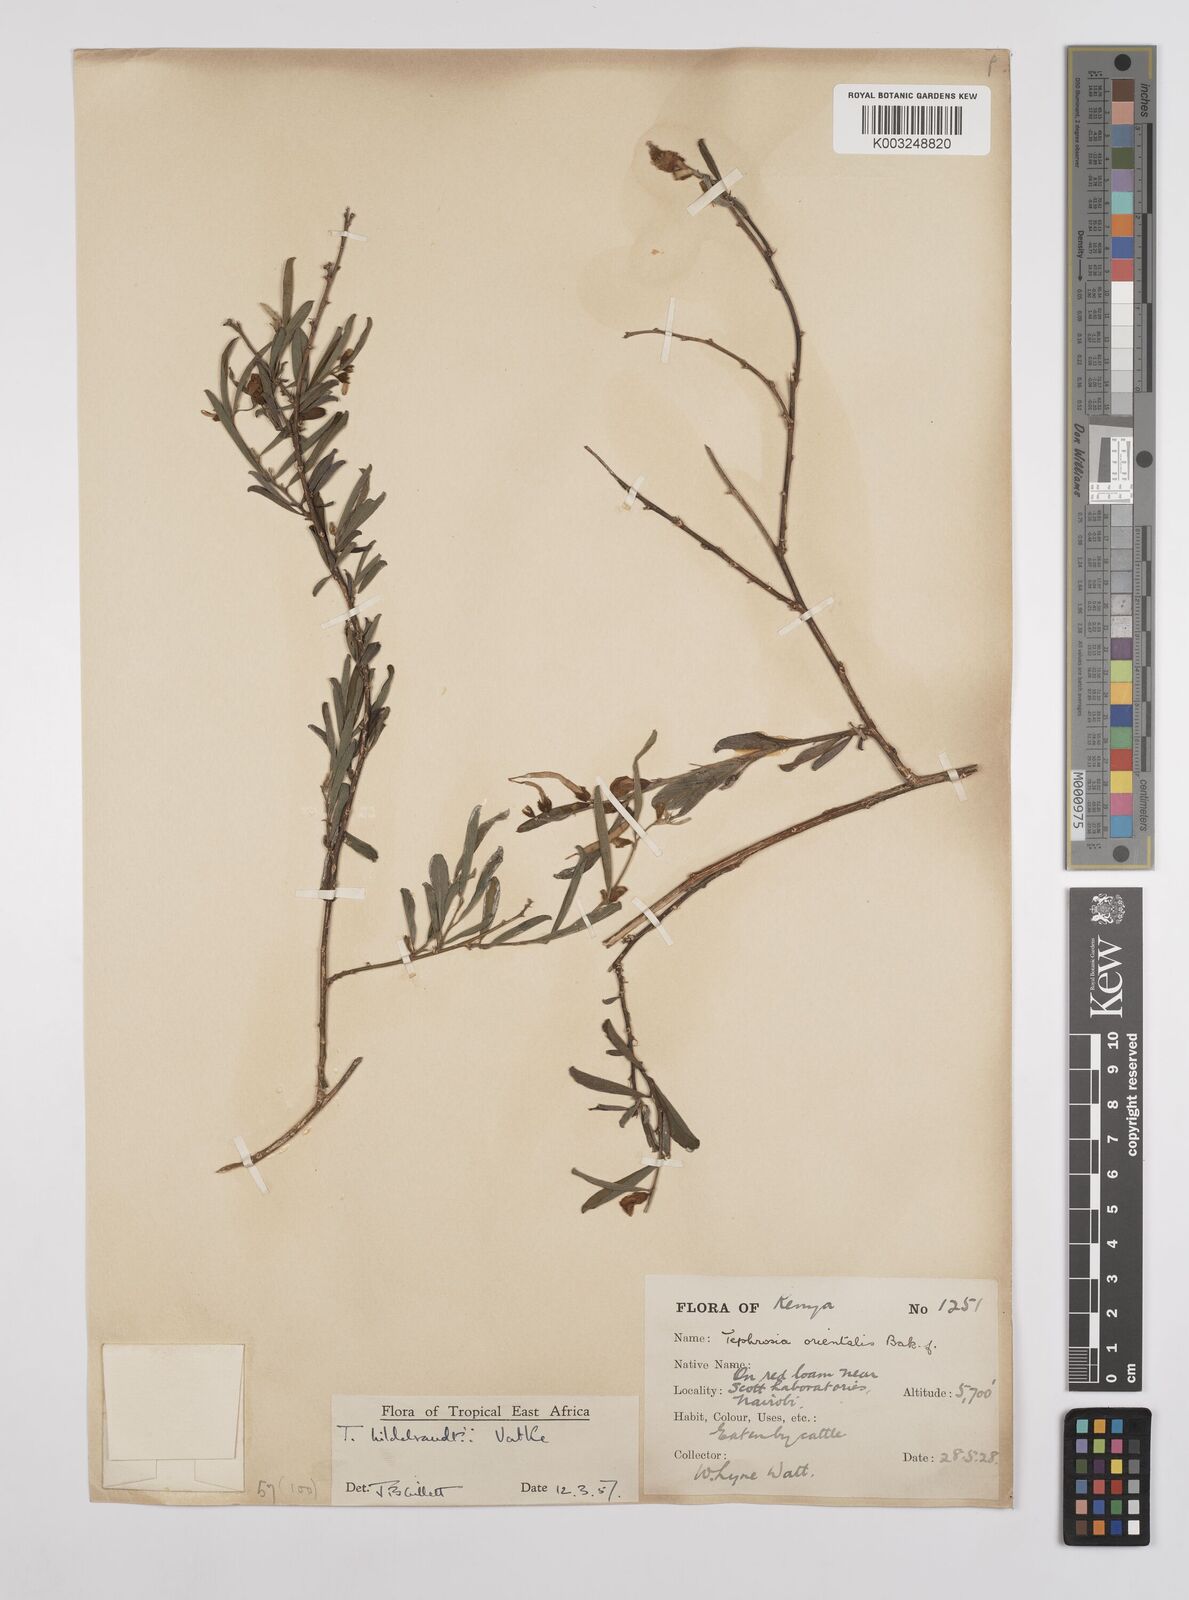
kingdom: Plantae
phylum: Tracheophyta
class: Magnoliopsida
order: Fabales
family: Fabaceae
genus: Tephrosia
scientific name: Tephrosia hildebrandtii
